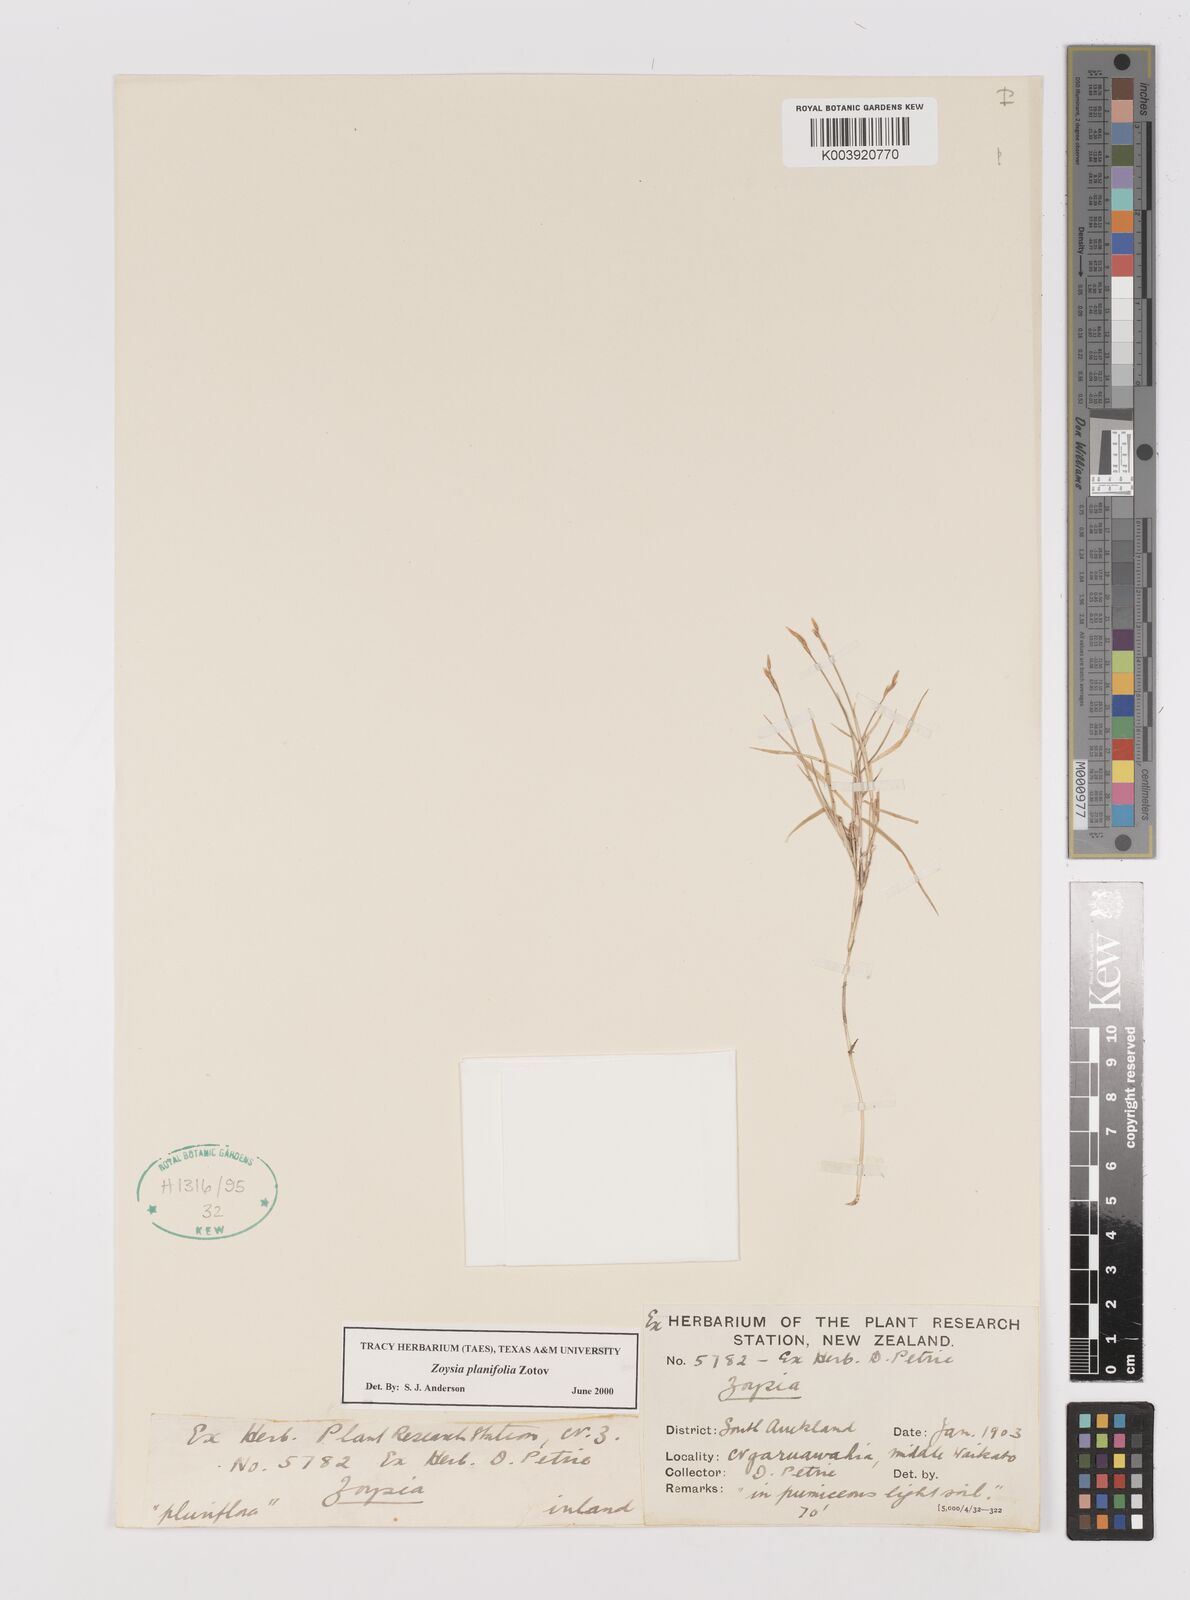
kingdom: Plantae
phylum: Tracheophyta
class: Liliopsida
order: Poales
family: Poaceae
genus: Zoysia
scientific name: Zoysia pauciflora
